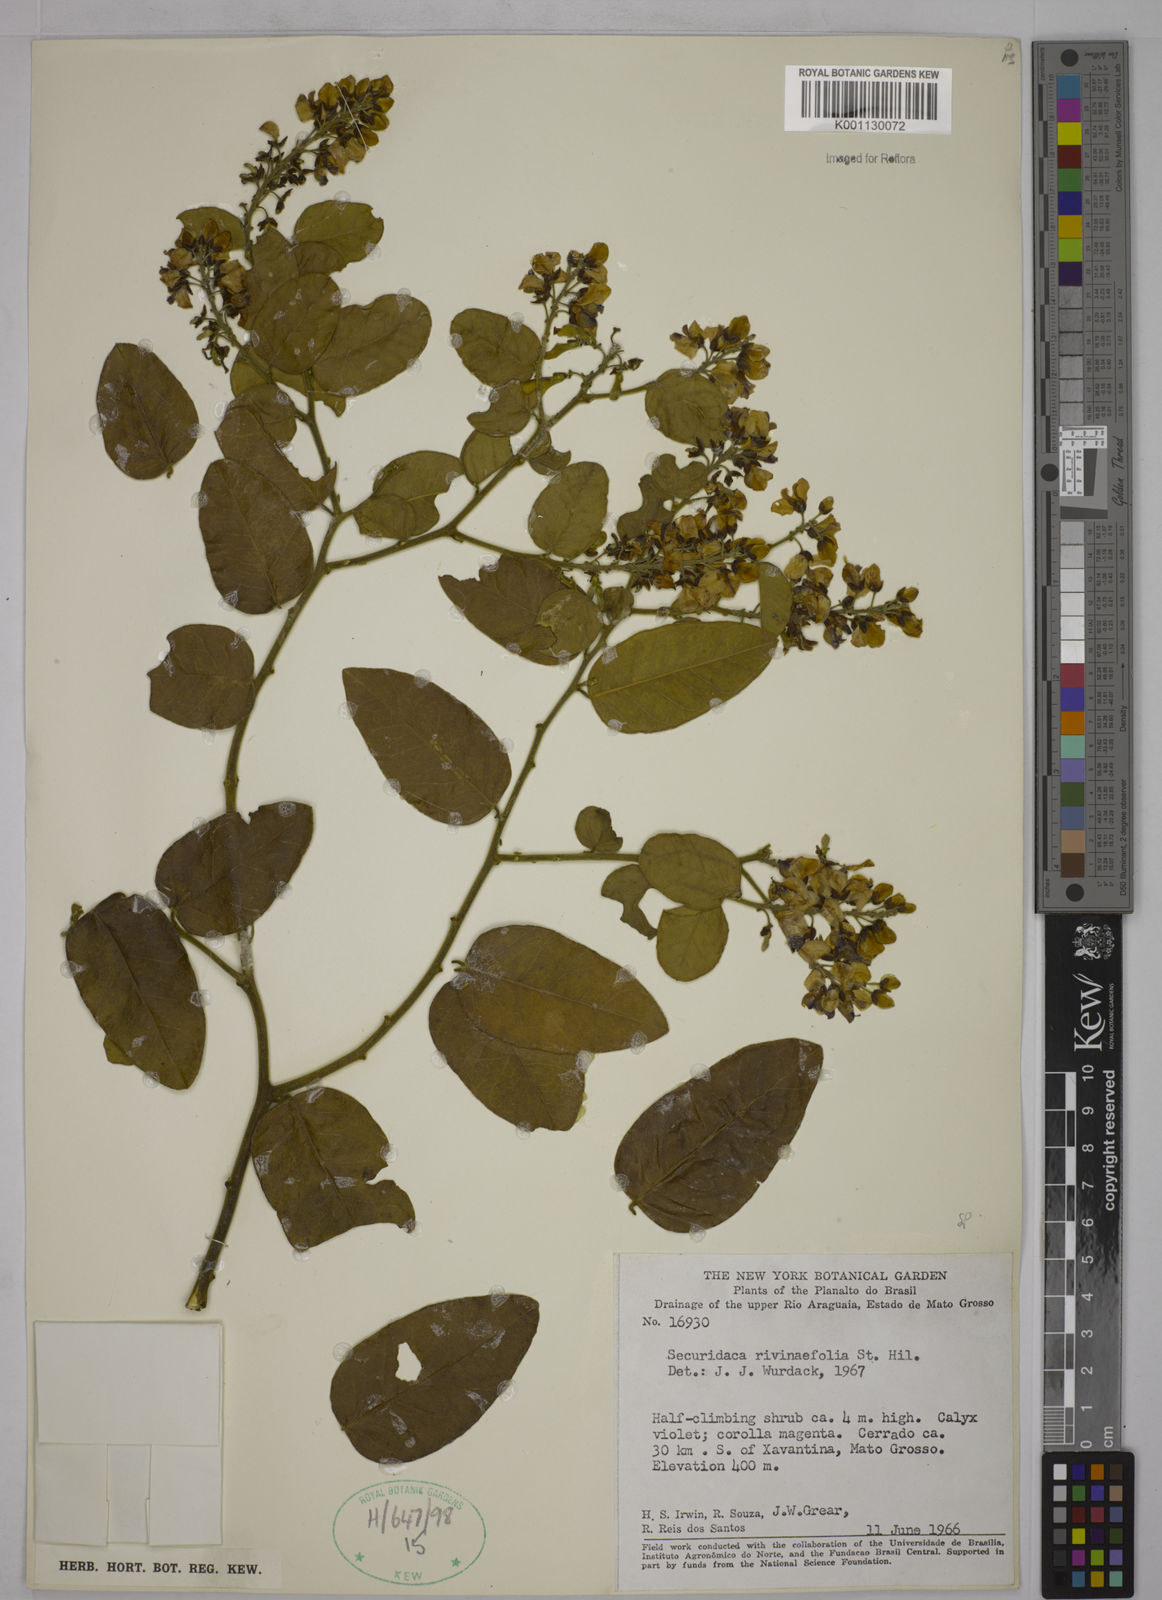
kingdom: Plantae
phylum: Tracheophyta
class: Magnoliopsida
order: Fabales
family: Polygalaceae
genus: Securidaca
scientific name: Securidaca rivinifolia
